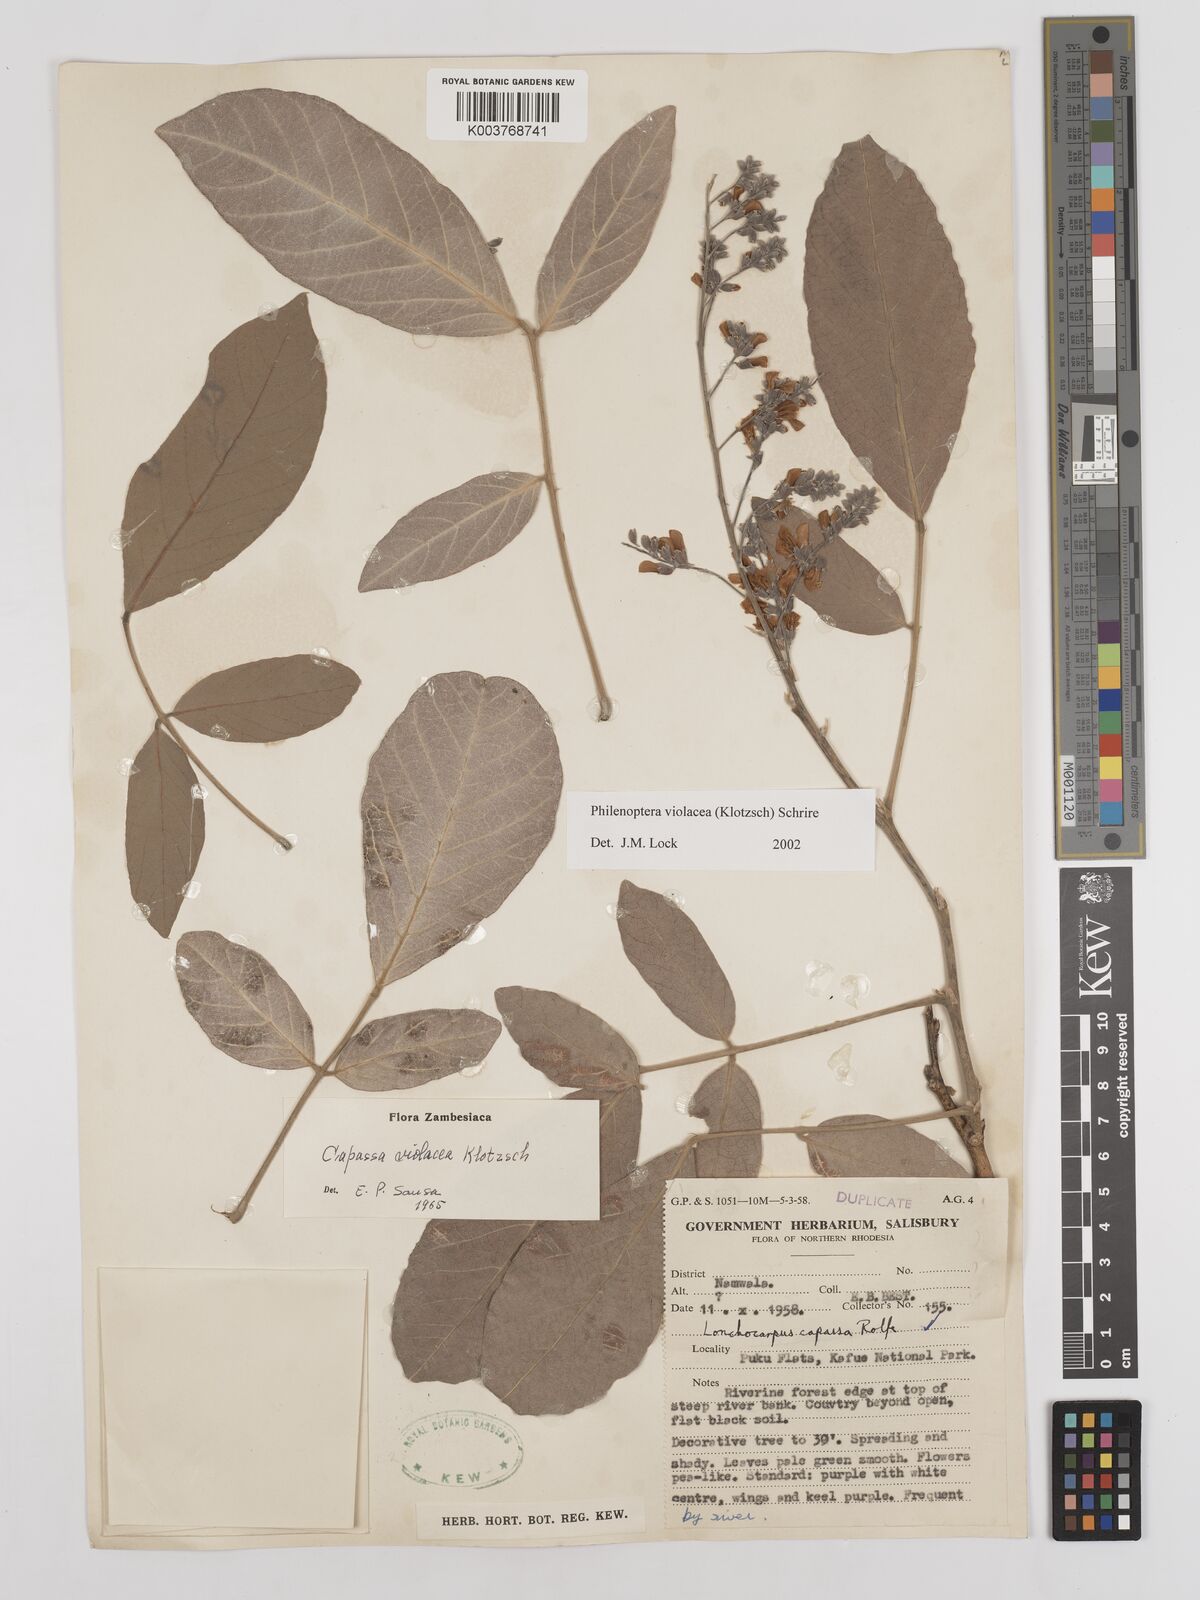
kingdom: Plantae
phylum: Tracheophyta
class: Magnoliopsida
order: Fabales
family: Fabaceae
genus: Philenoptera
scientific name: Philenoptera violacea
